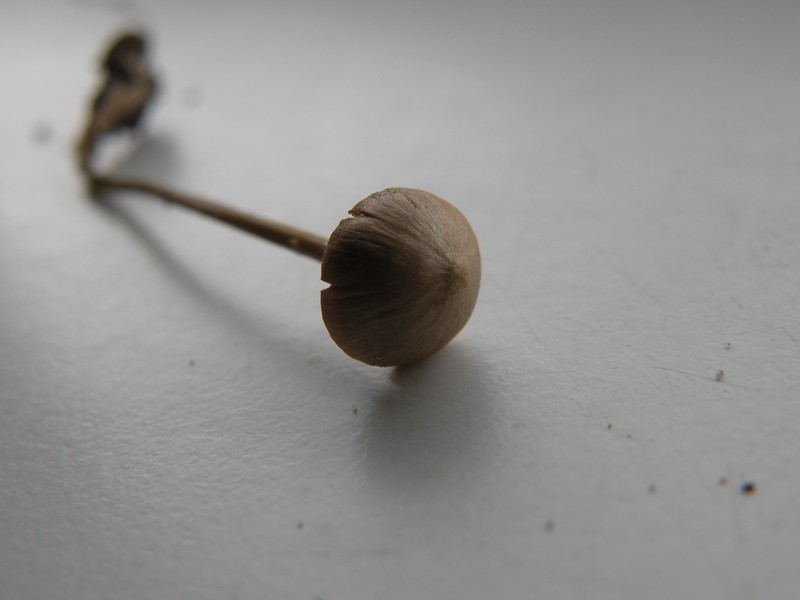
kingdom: Fungi
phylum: Basidiomycota
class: Agaricomycetes
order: Agaricales
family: Entolomataceae
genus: Entoloma
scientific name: Entoloma
